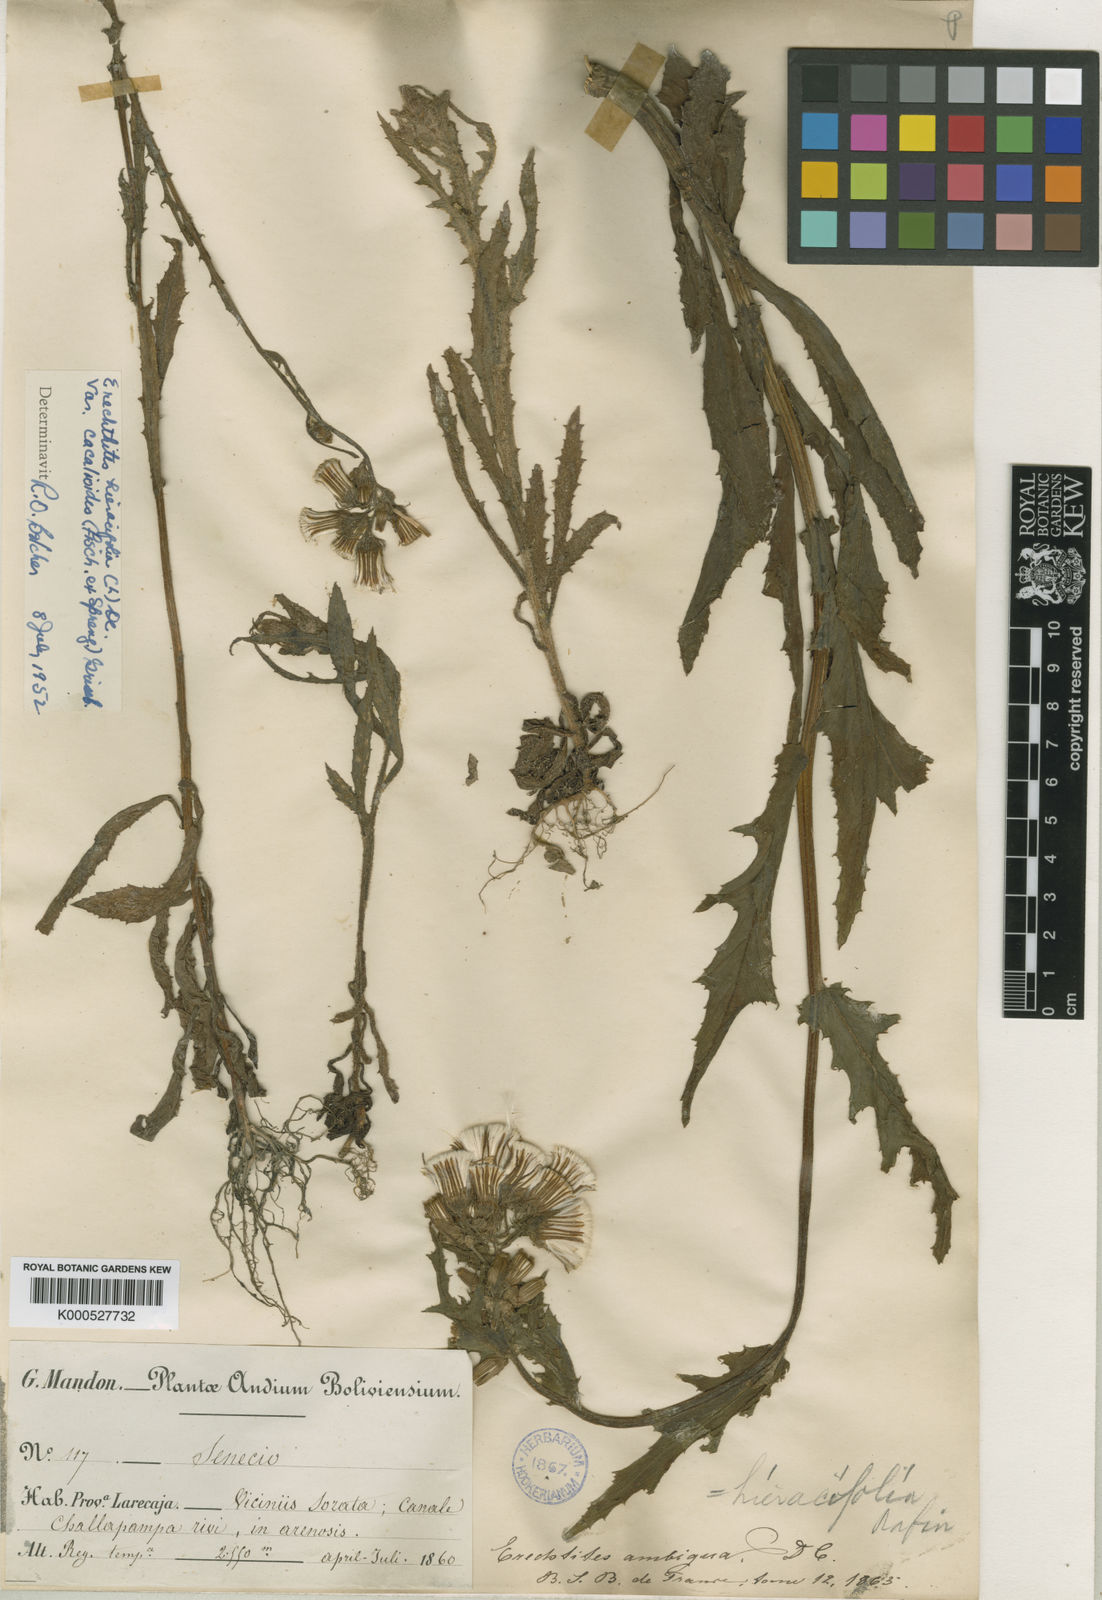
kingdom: Plantae
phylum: Tracheophyta
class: Magnoliopsida
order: Asterales
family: Asteraceae
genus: Erechtites
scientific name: Erechtites hieraciifolius
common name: American burnweed
